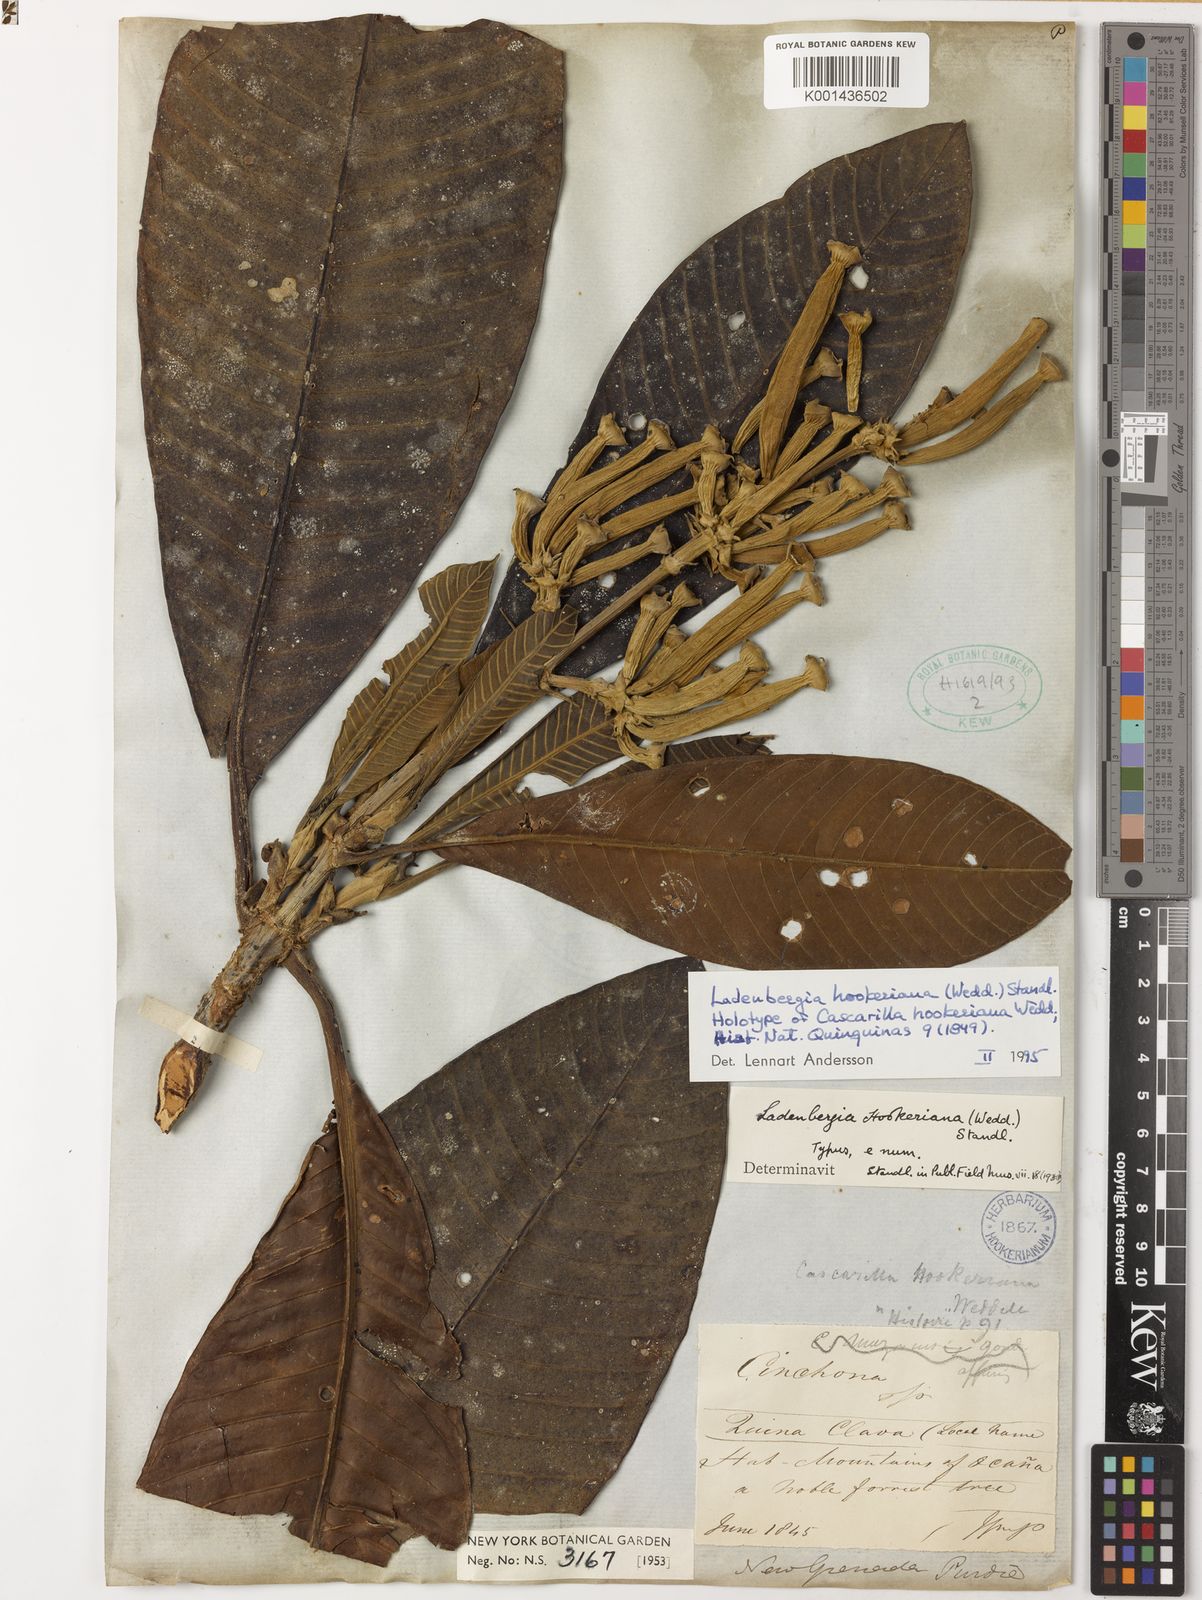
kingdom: Plantae
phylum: Tracheophyta
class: Magnoliopsida
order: Gentianales
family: Rubiaceae
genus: Ladenbergia
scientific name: Ladenbergia muzonensis
